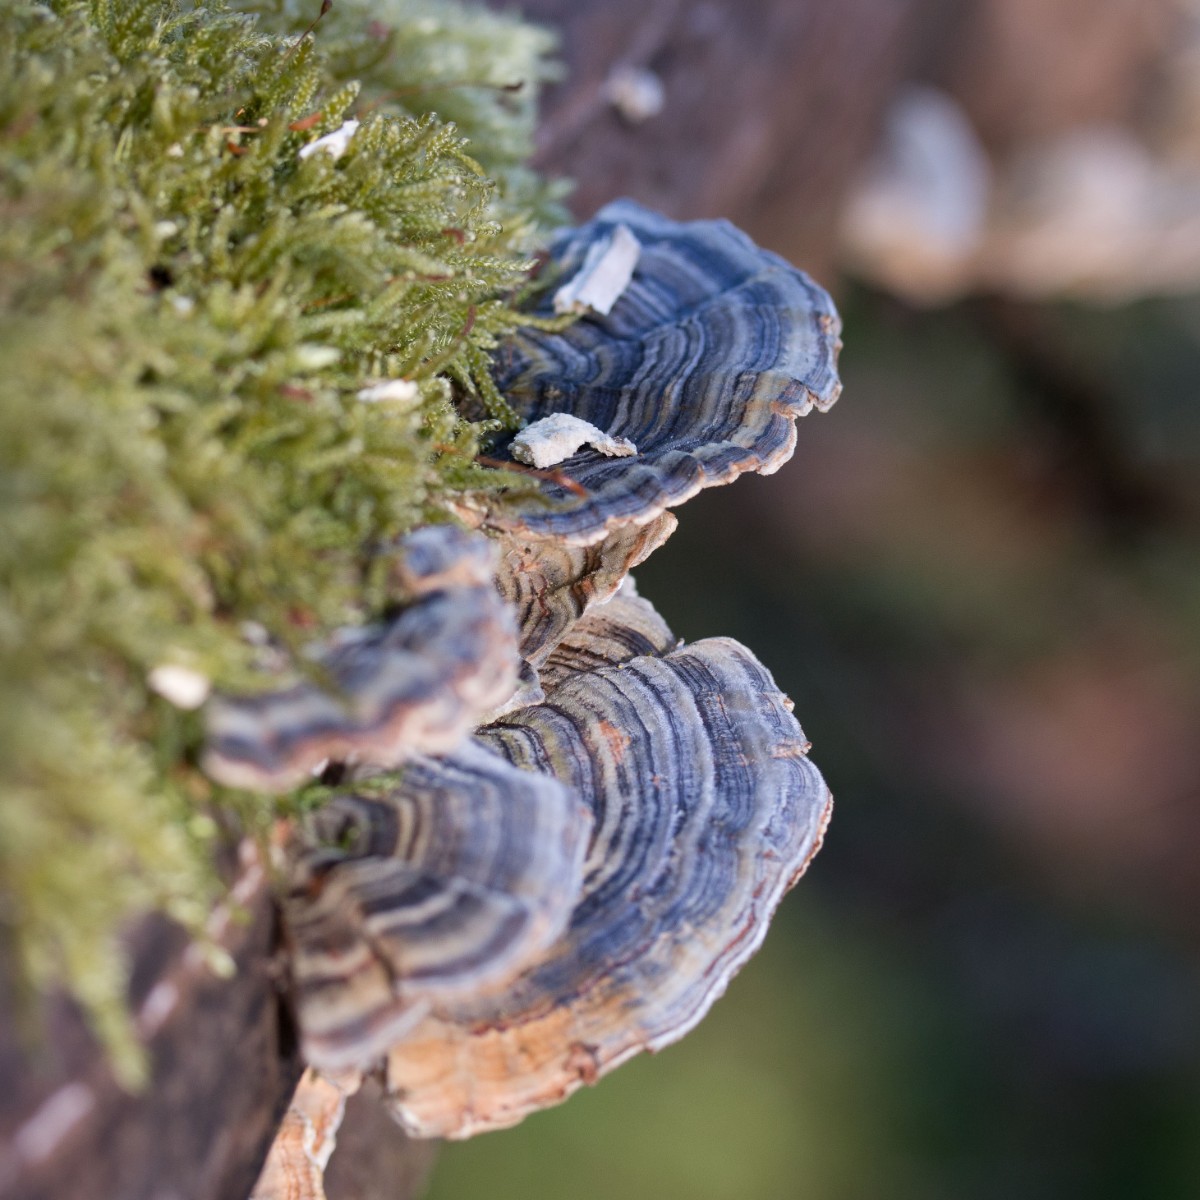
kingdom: Fungi
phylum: Basidiomycota
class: Agaricomycetes
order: Polyporales
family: Polyporaceae
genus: Trametes
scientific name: Trametes versicolor
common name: broget læderporesvamp
